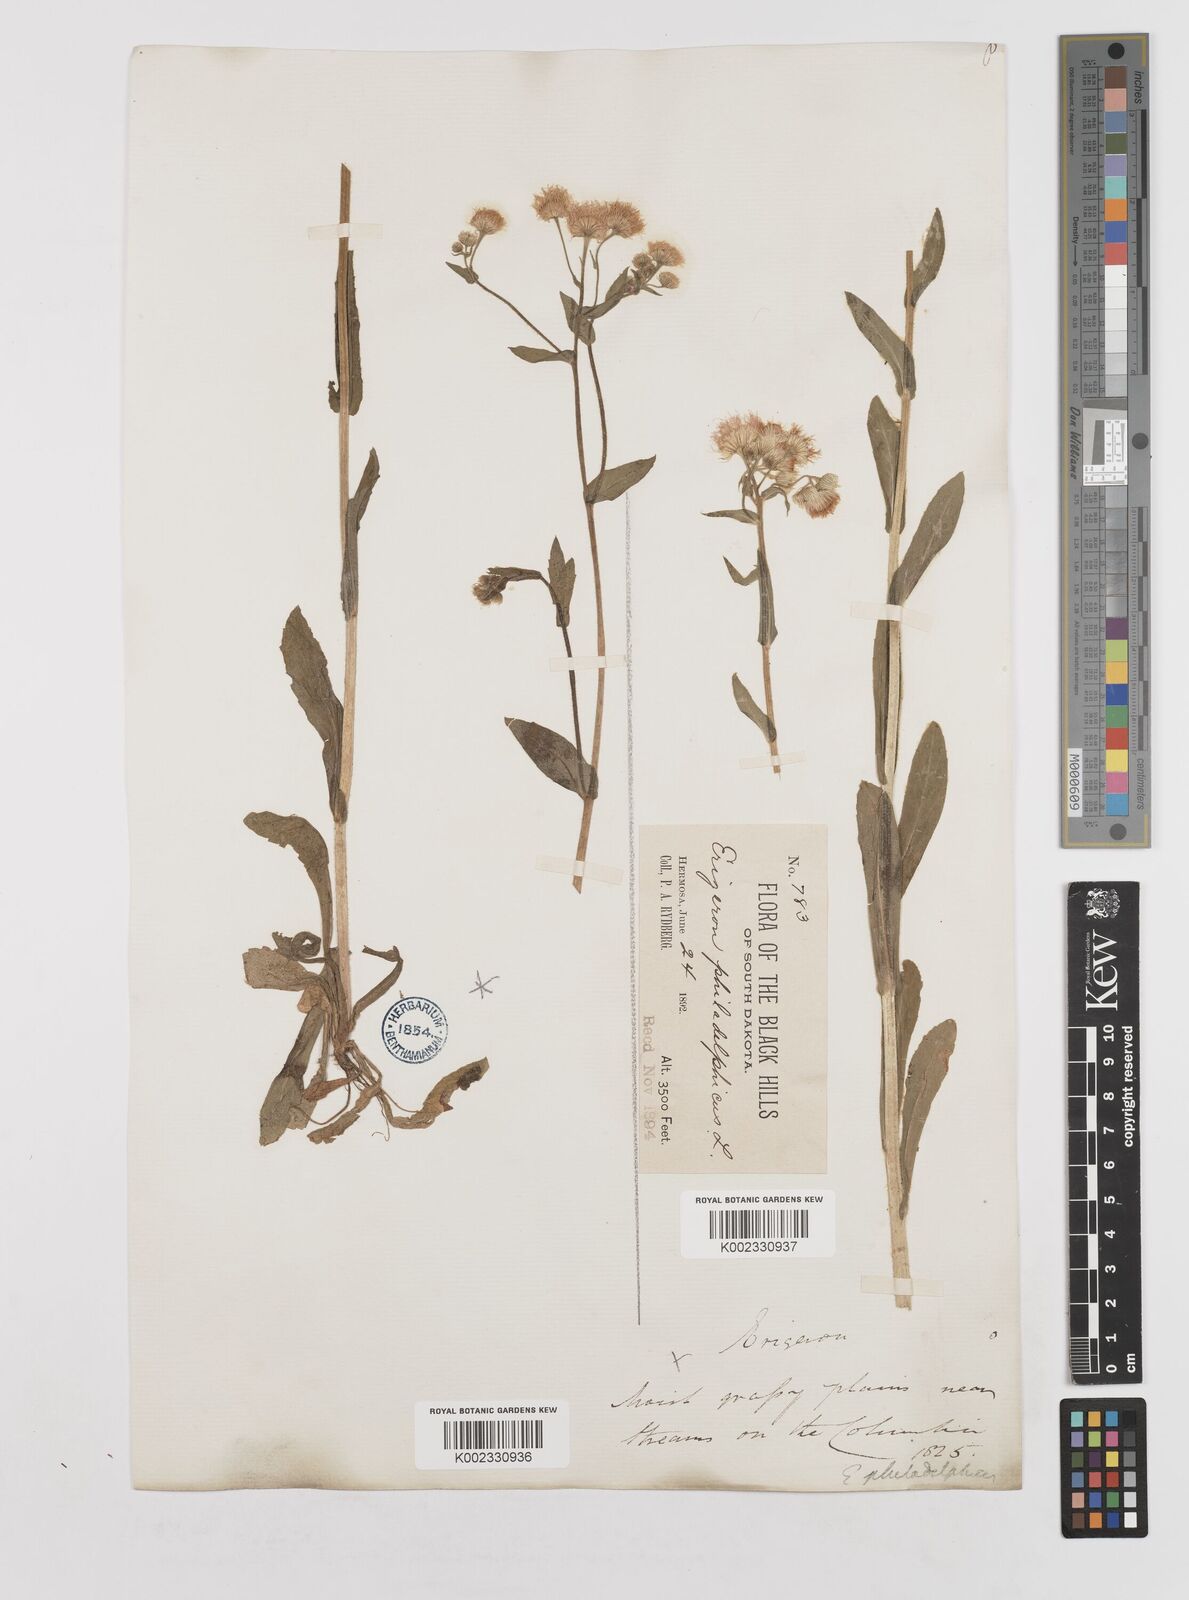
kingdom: Plantae
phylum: Tracheophyta
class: Magnoliopsida
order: Asterales
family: Asteraceae
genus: Erigeron
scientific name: Erigeron philadelphicus
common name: Robin's-plantain
